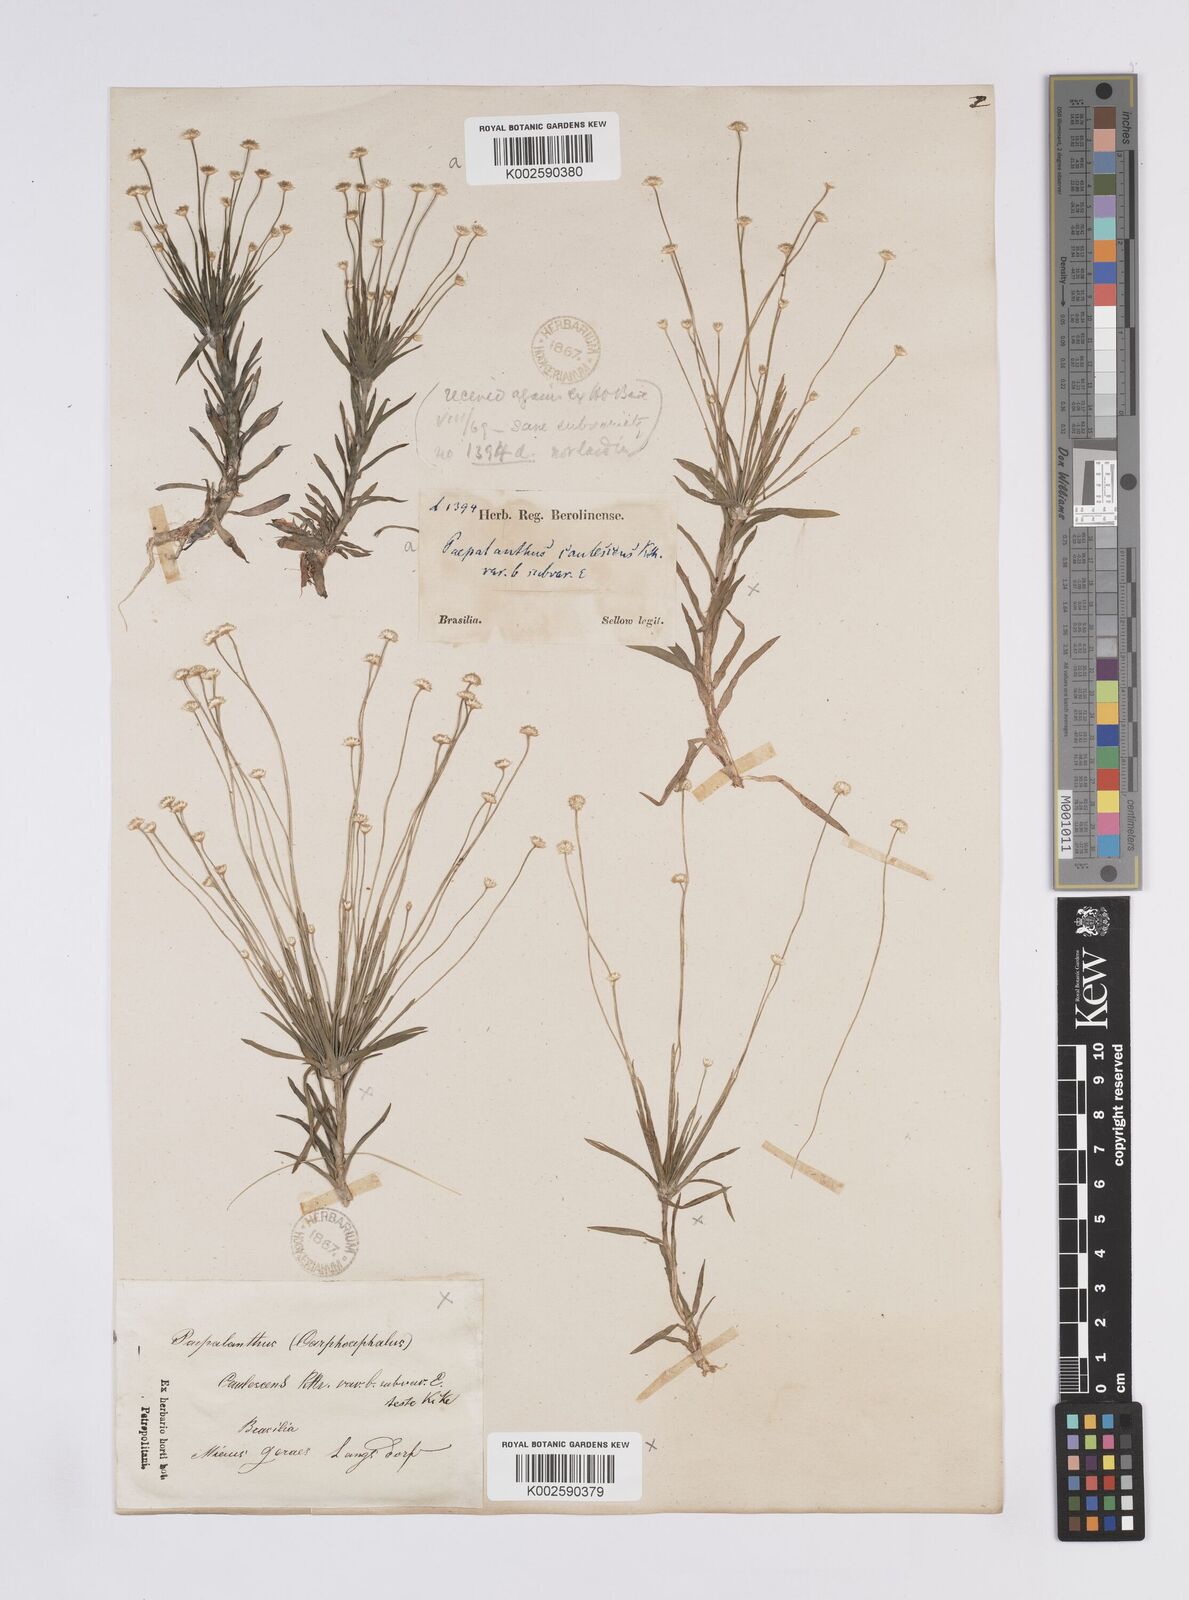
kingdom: Plantae
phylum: Tracheophyta
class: Liliopsida
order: Poales
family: Eriocaulaceae
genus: Syngonanthus
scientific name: Syngonanthus caulescens
